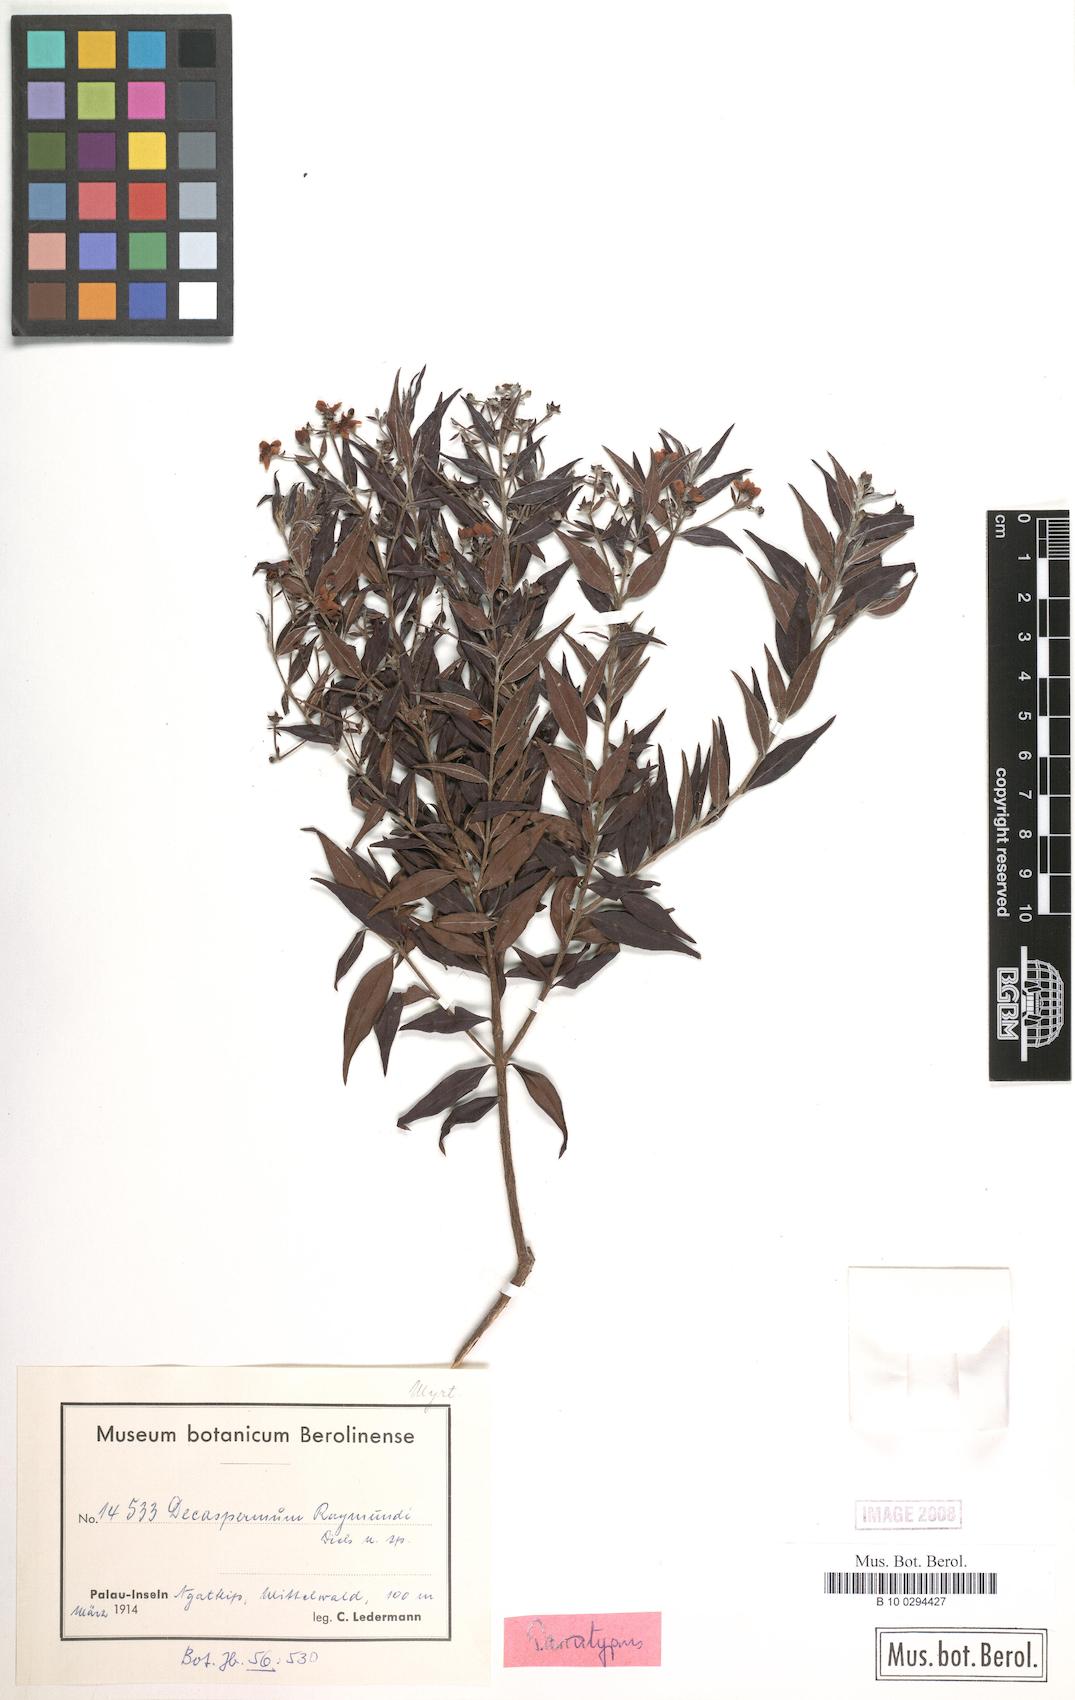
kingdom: Plantae
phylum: Tracheophyta
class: Magnoliopsida
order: Myrtales
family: Myrtaceae
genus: Decaspermum
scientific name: Decaspermum raymundi
